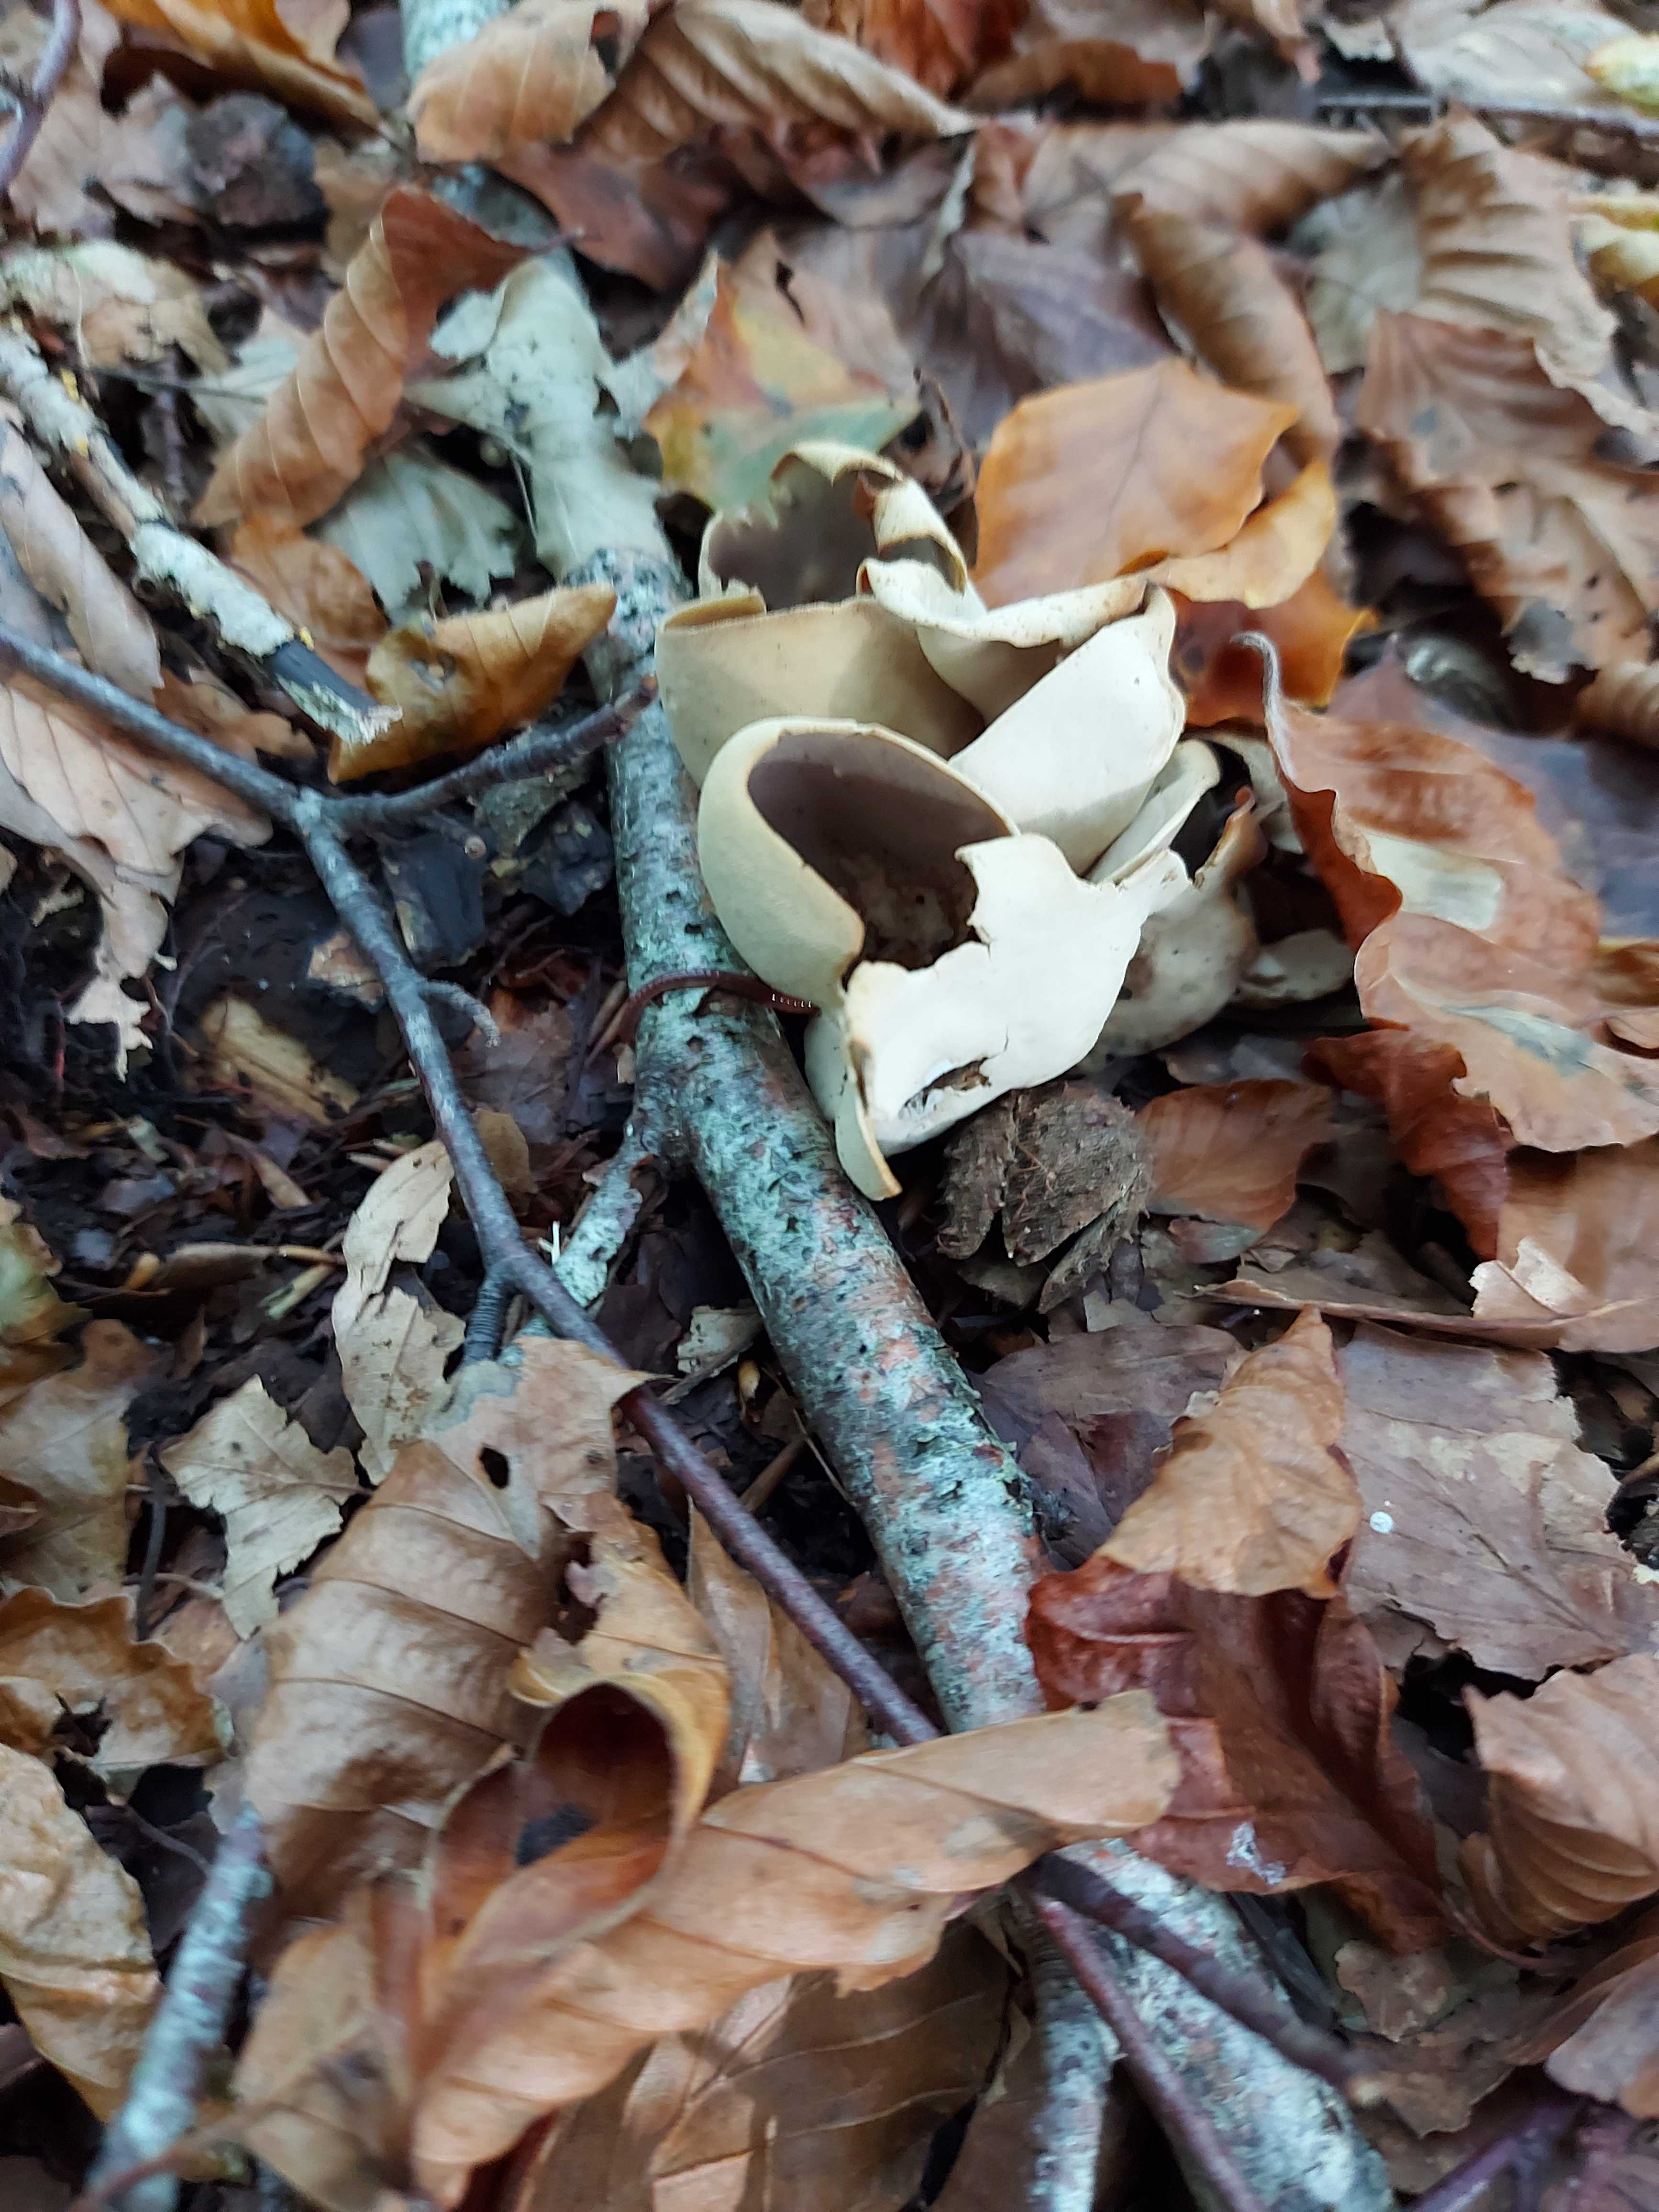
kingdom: Fungi
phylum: Ascomycota
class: Pezizomycetes
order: Pezizales
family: Otideaceae
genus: Otidea
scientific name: Otidea alutacea
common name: læder-ørebæger
